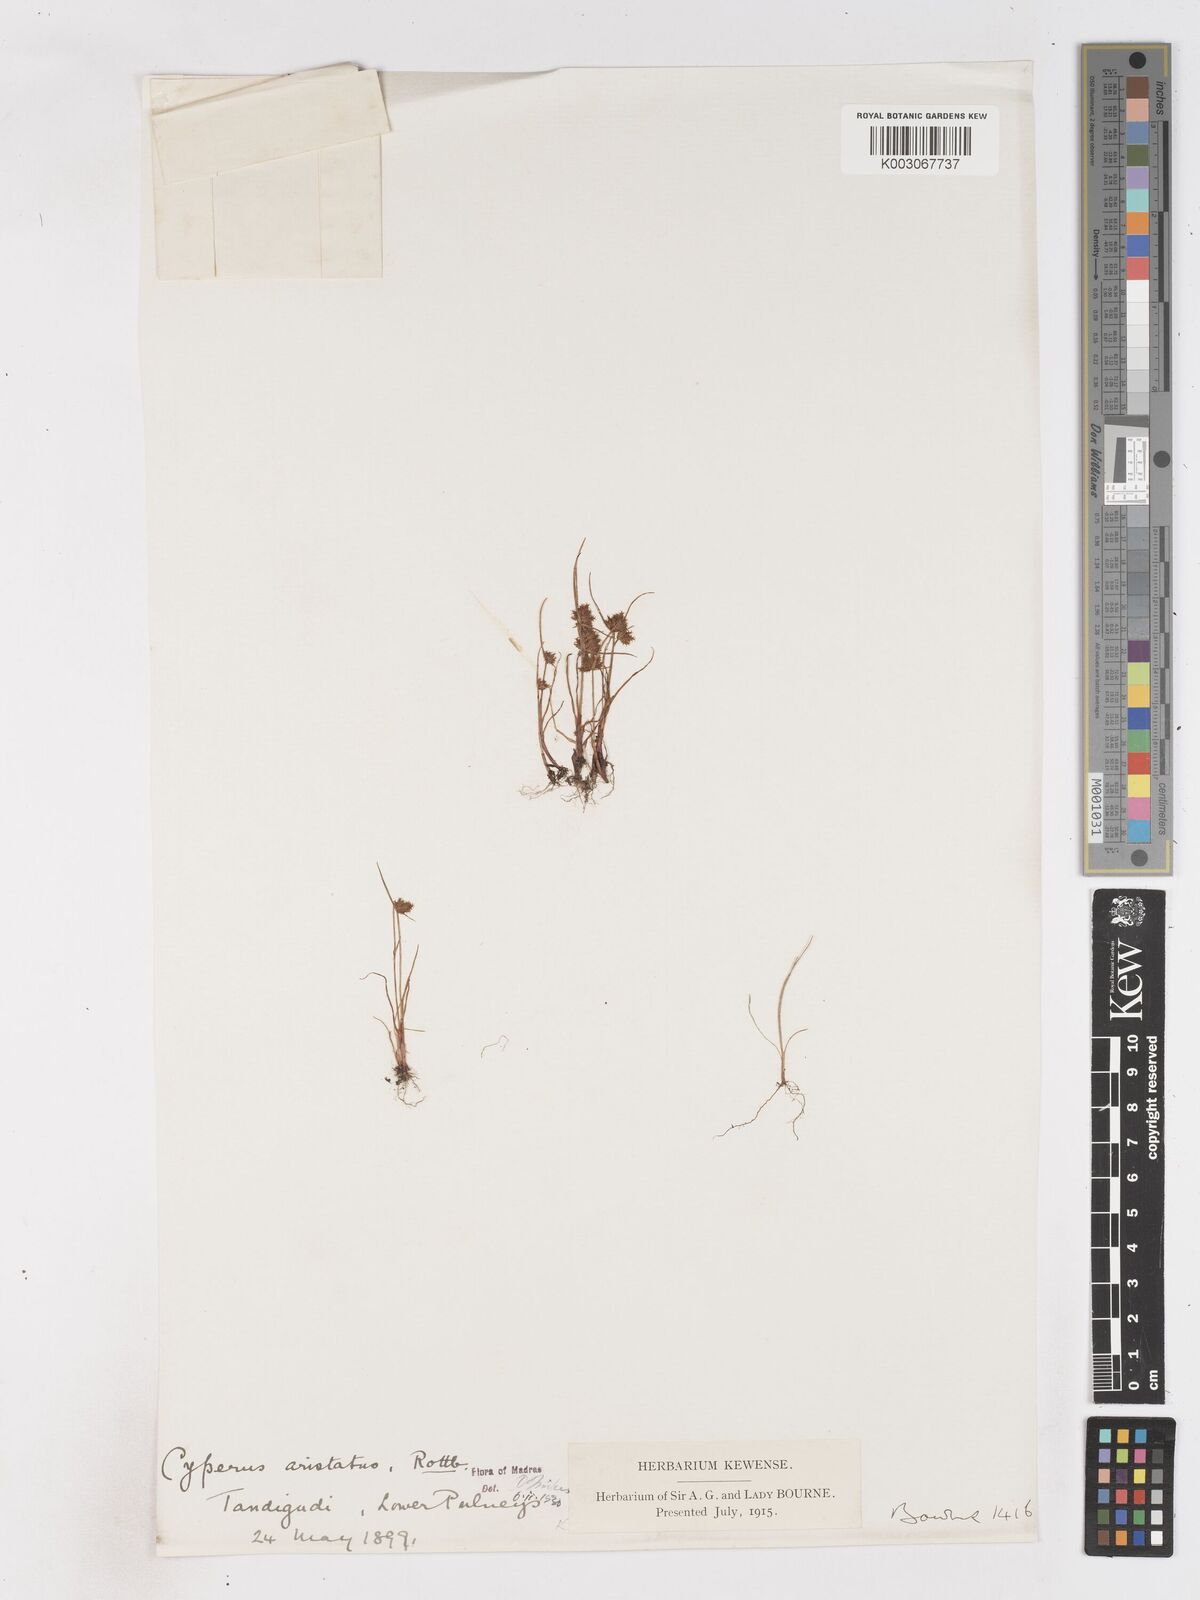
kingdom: Plantae
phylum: Tracheophyta
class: Liliopsida
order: Poales
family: Cyperaceae
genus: Cyperus
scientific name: Cyperus squarrosus
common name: Awned cyperus
